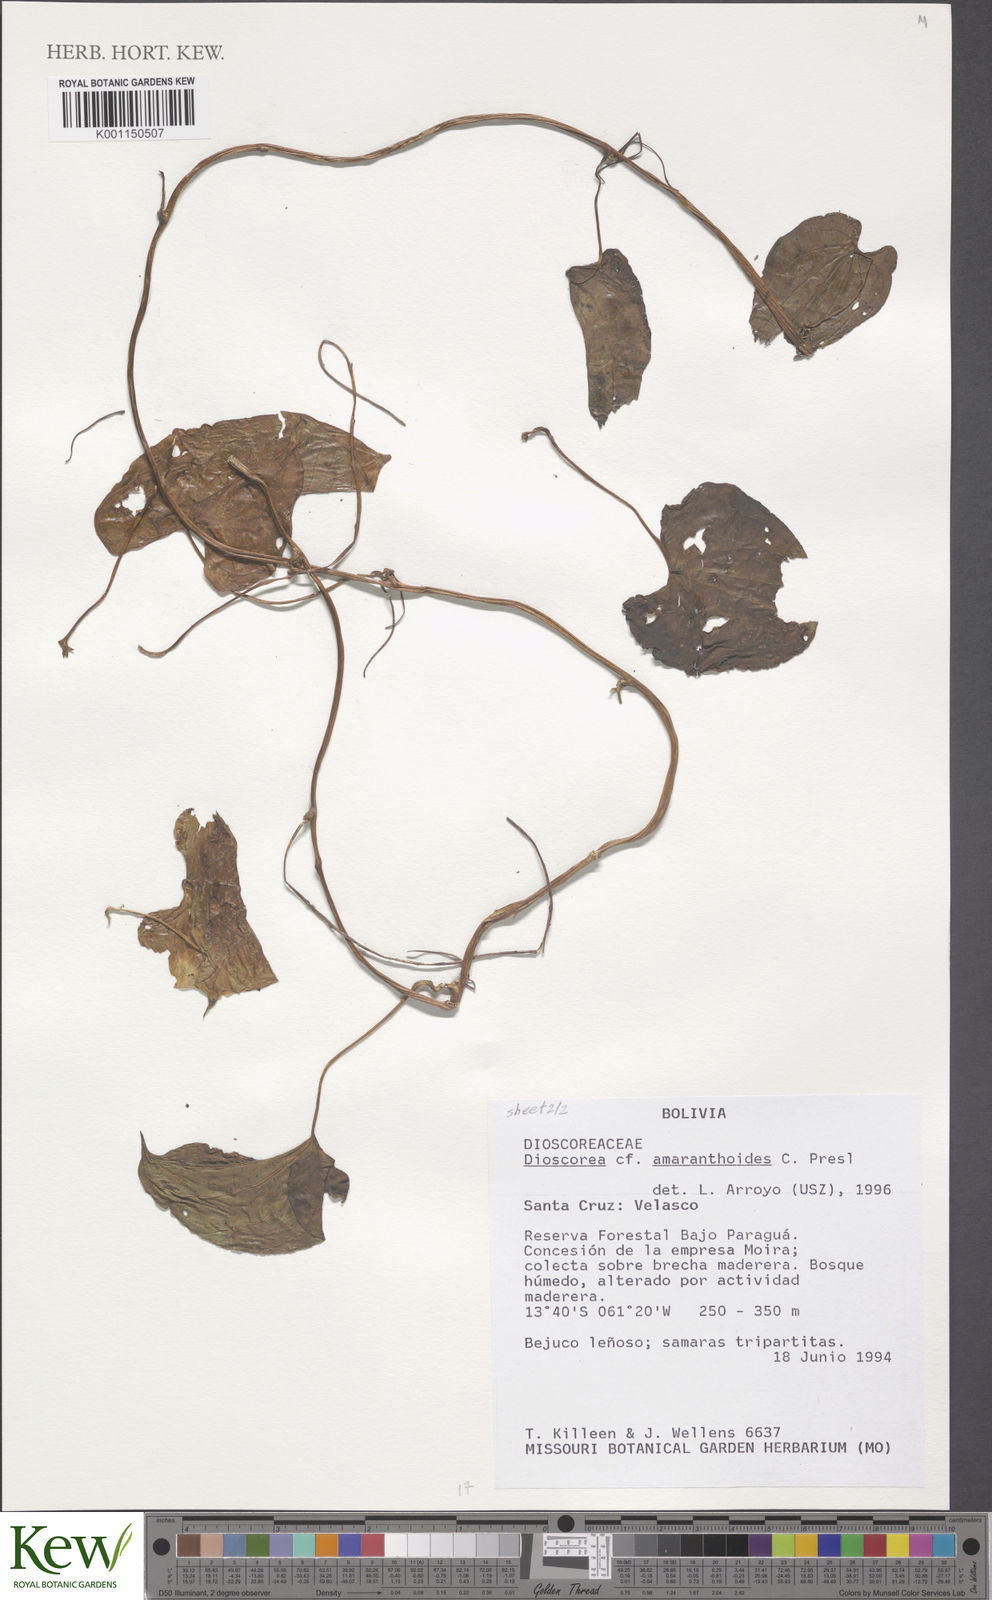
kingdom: Plantae
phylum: Tracheophyta
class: Liliopsida
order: Dioscoreales
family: Dioscoreaceae
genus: Dioscorea
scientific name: Dioscorea dodecaneura
